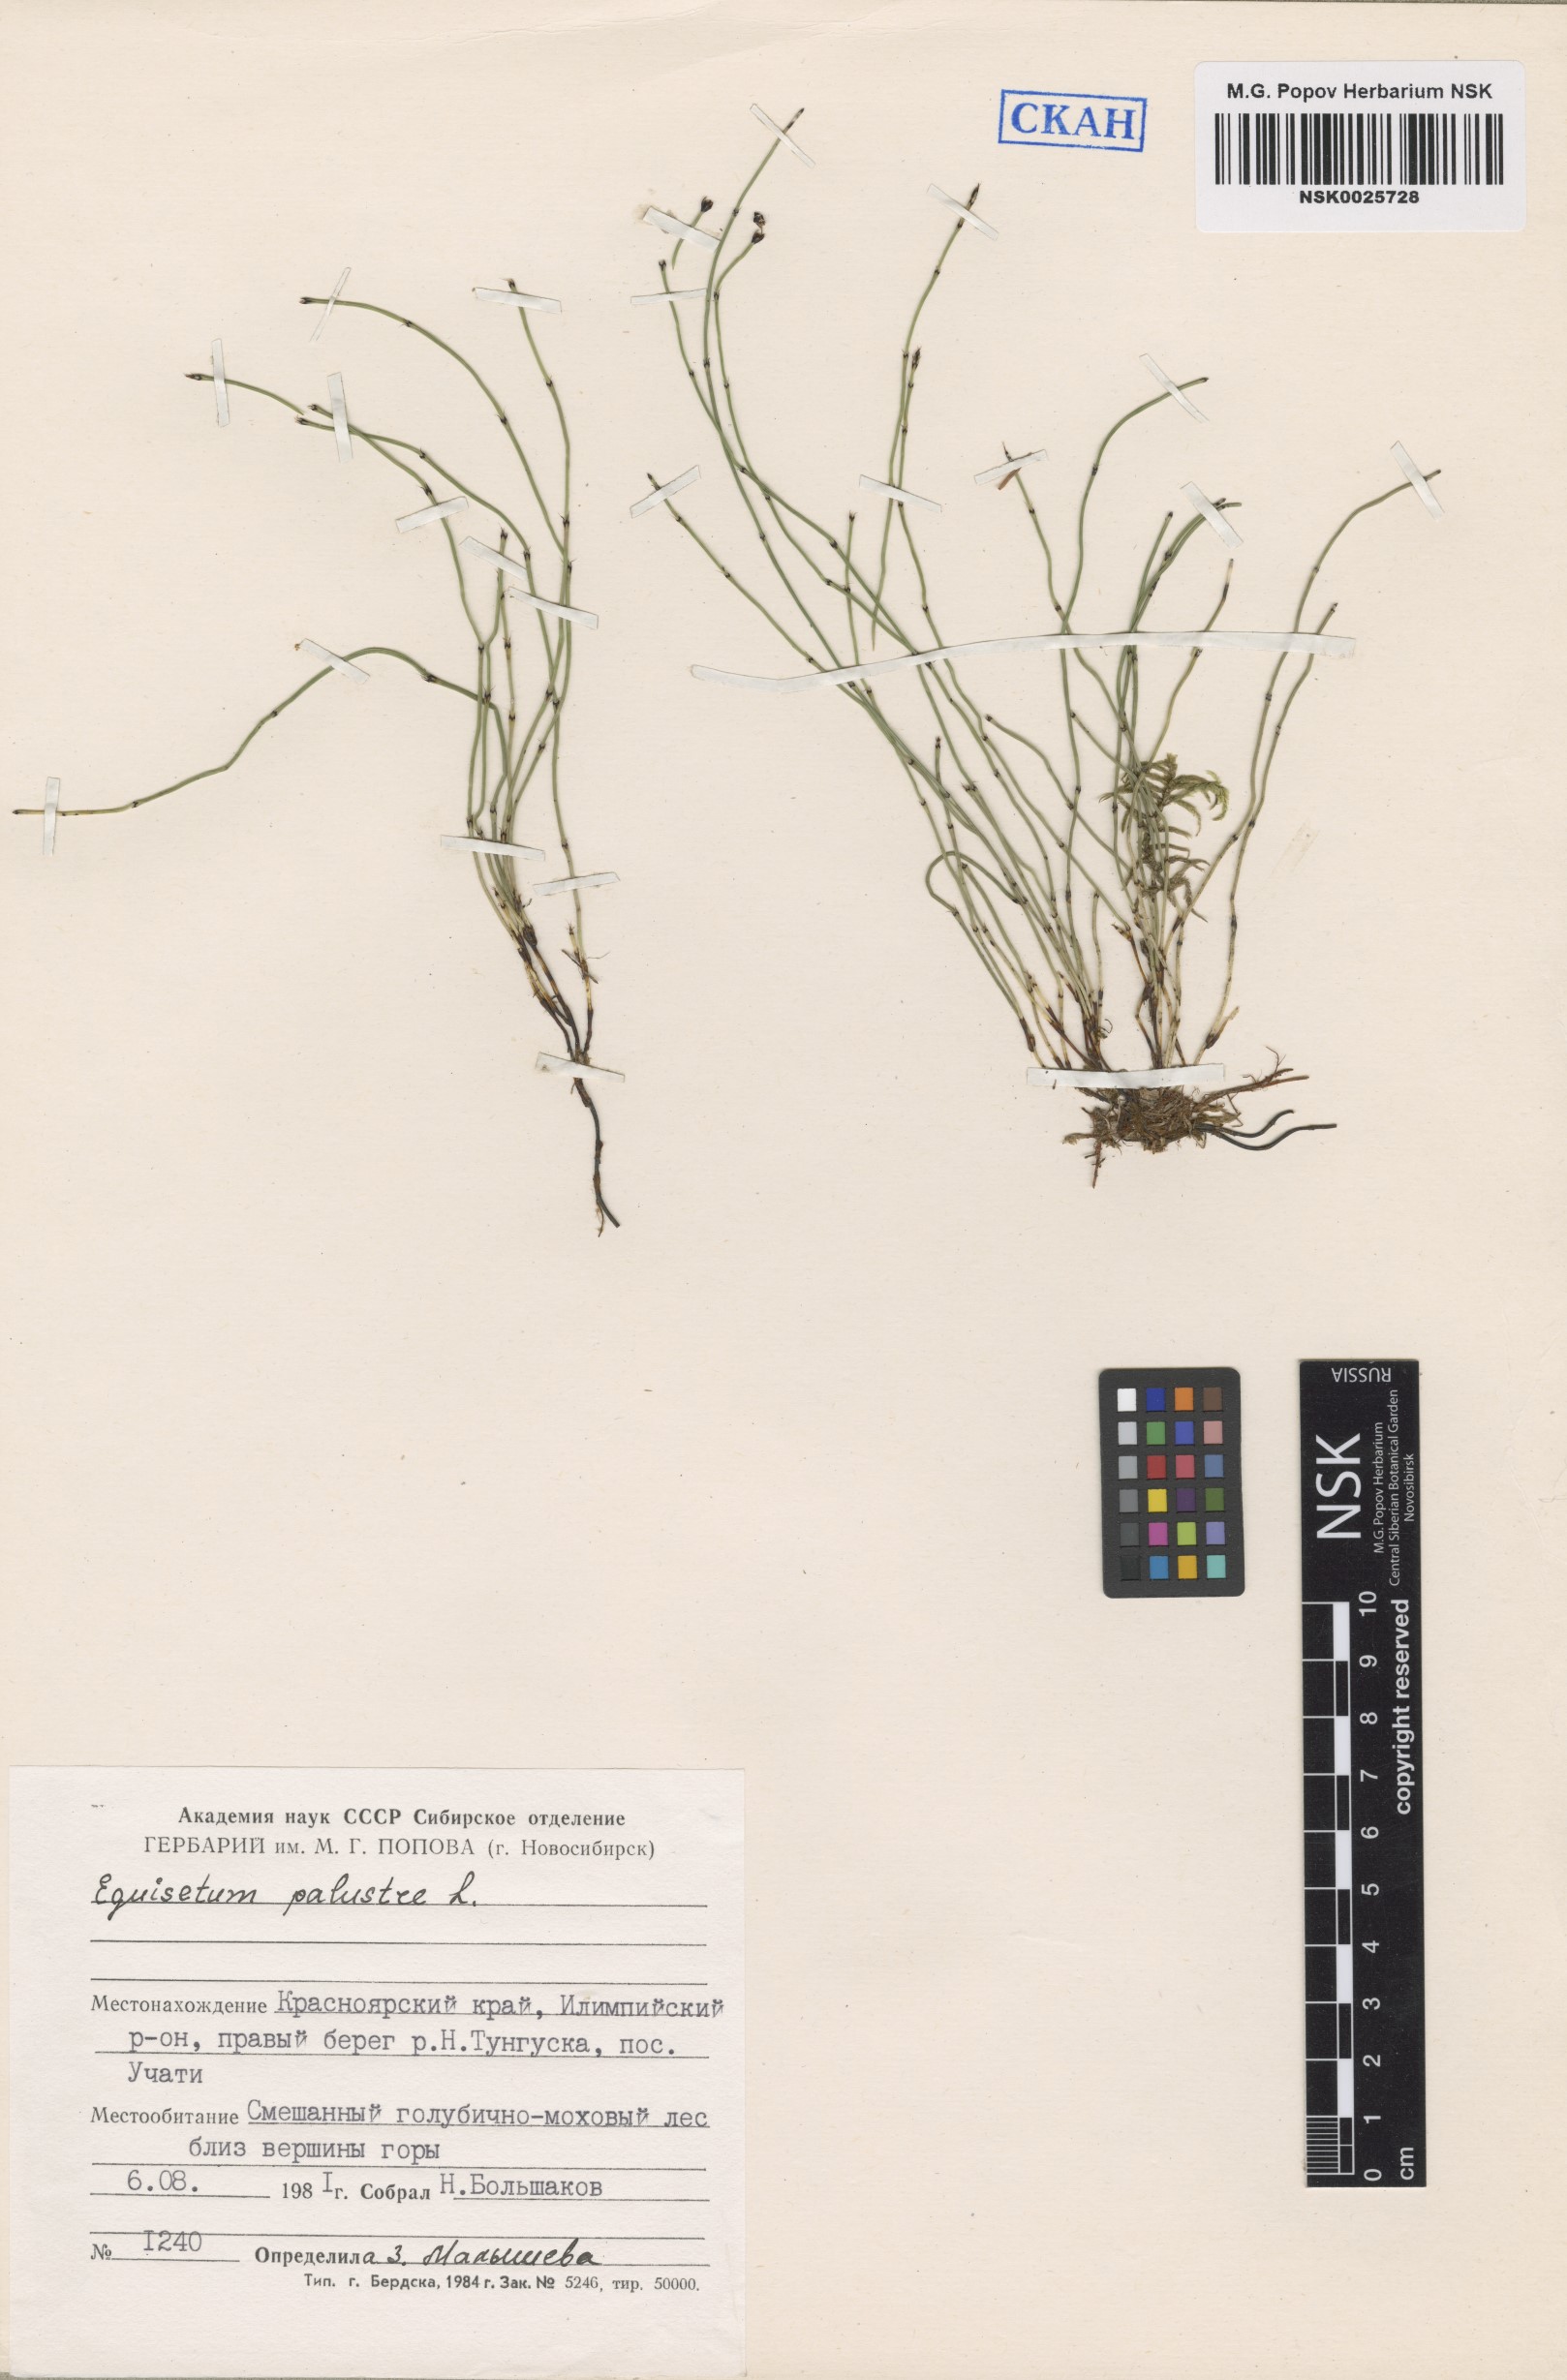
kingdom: Plantae
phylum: Tracheophyta
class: Polypodiopsida
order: Equisetales
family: Equisetaceae
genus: Equisetum
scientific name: Equisetum palustre
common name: Marsh horsetail
